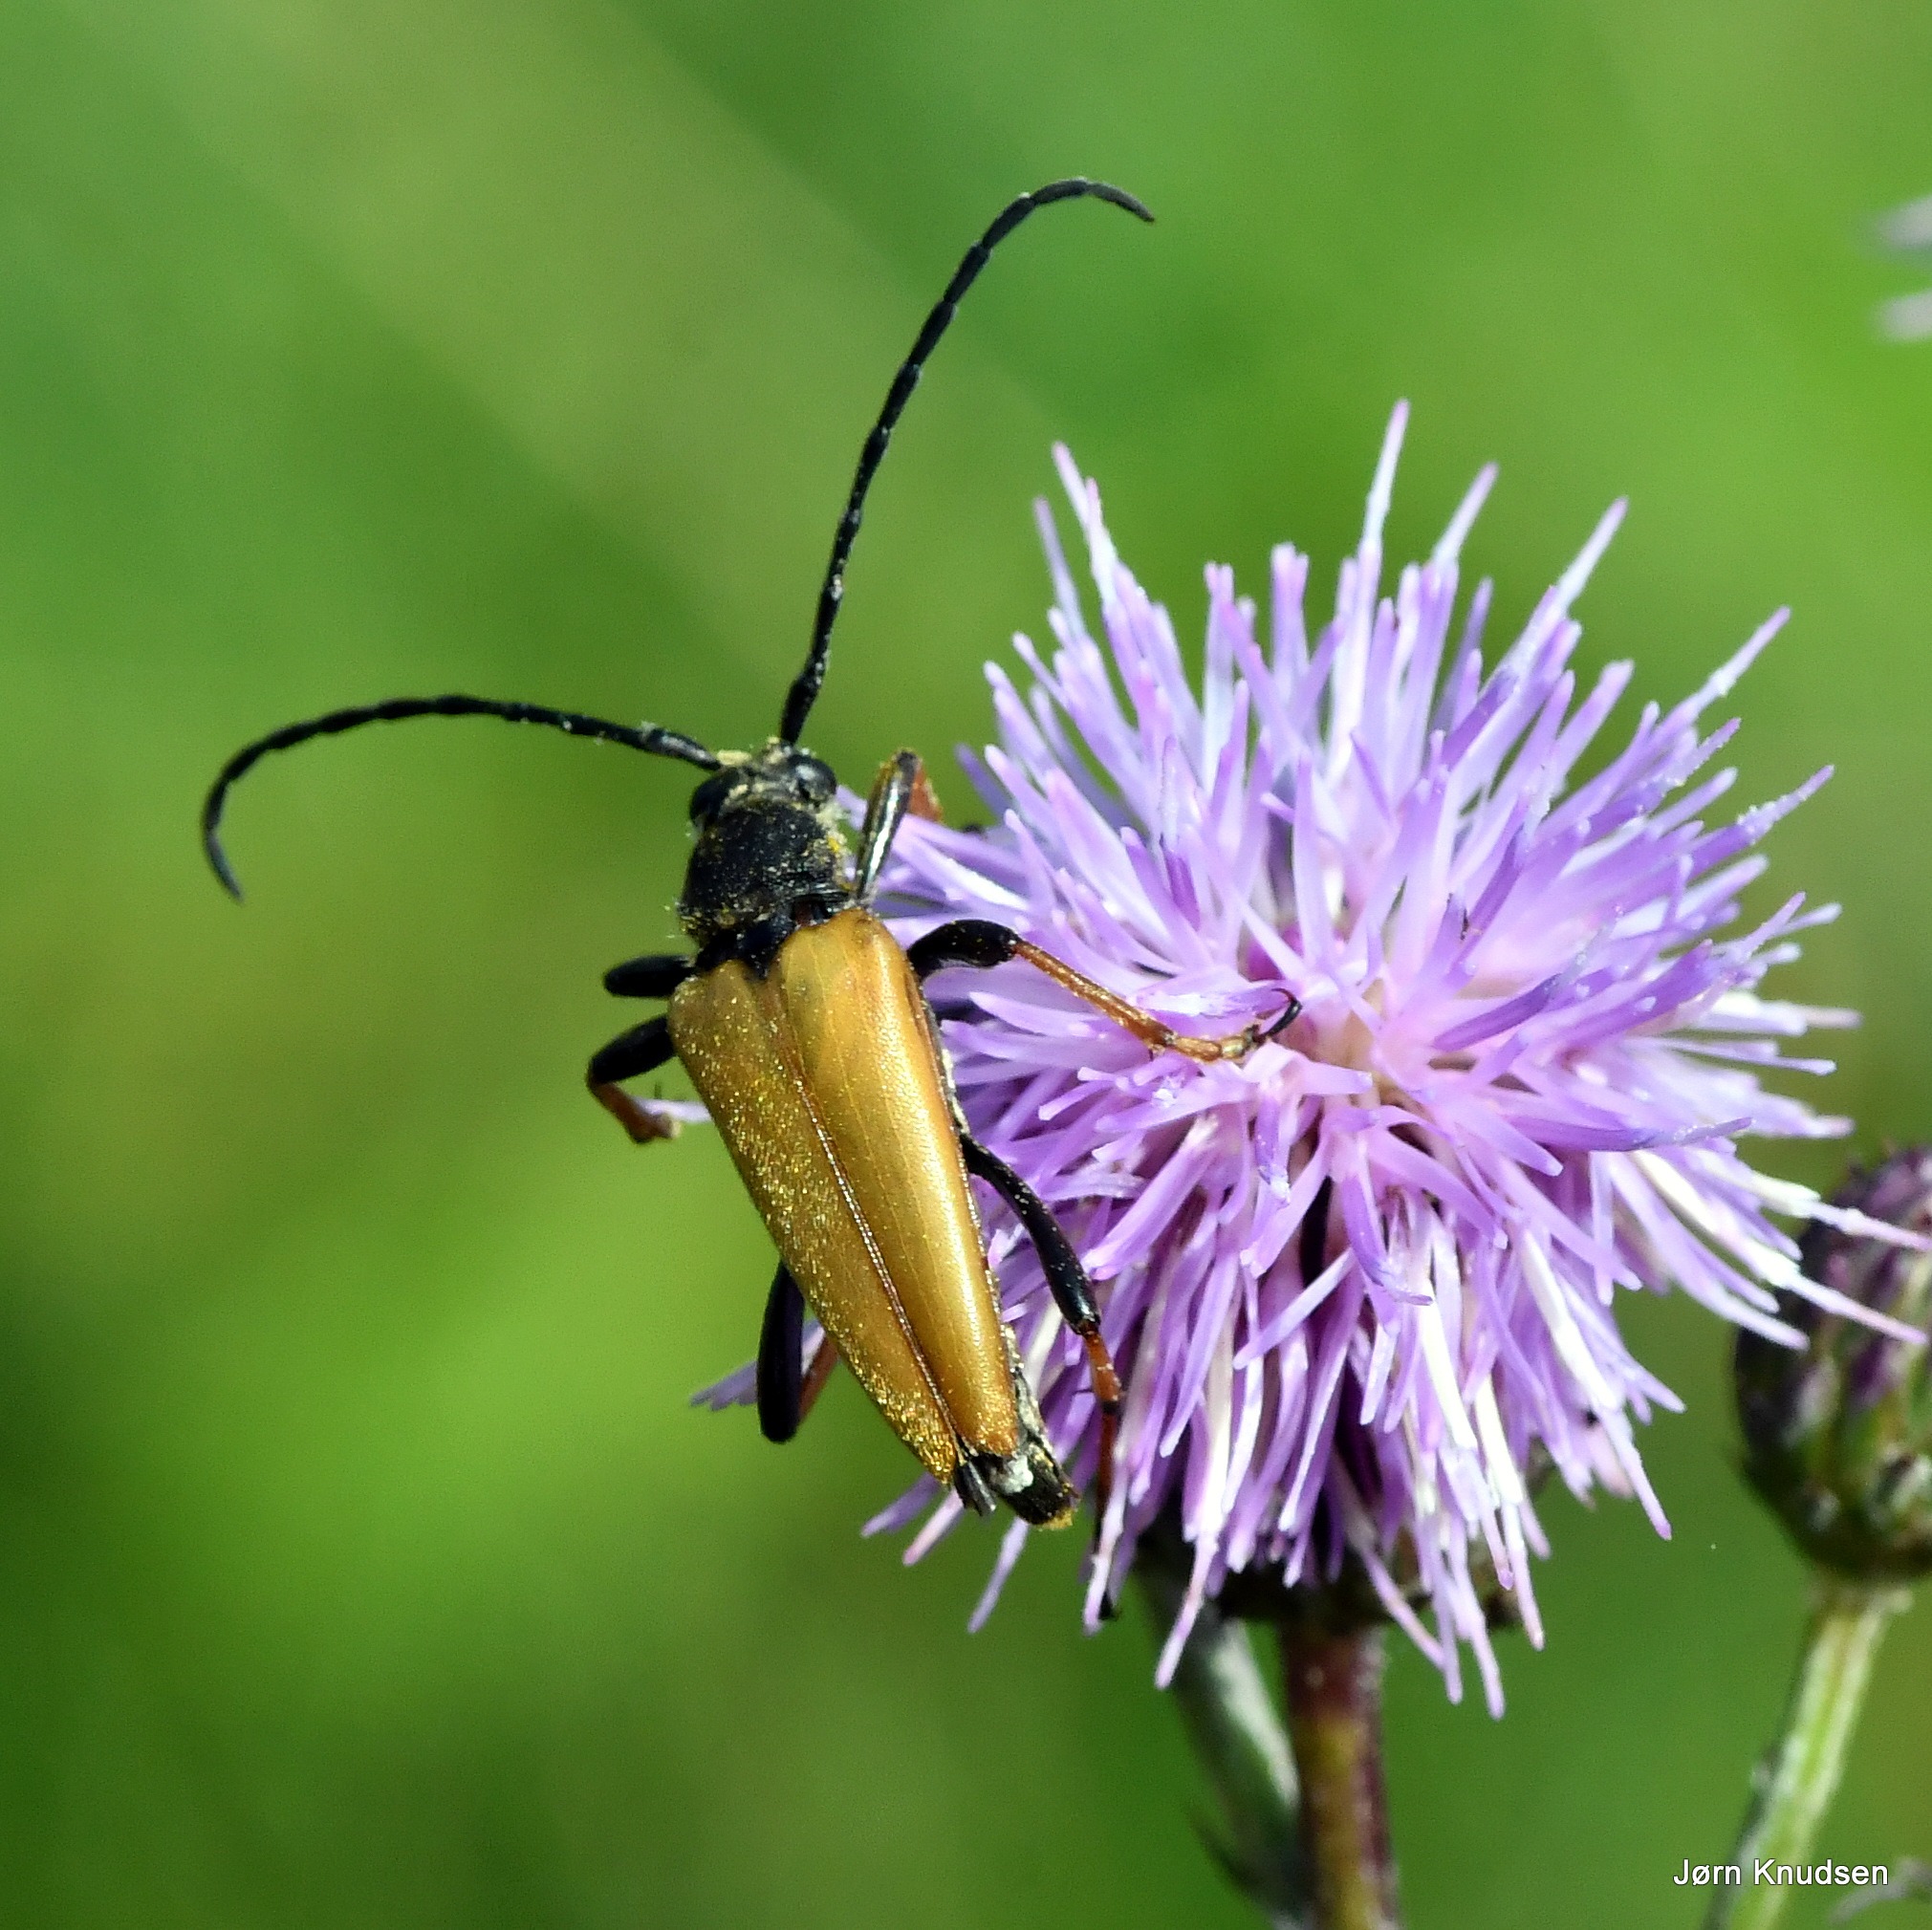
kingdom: Animalia
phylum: Arthropoda
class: Insecta
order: Coleoptera
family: Cerambycidae
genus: Stictoleptura
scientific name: Stictoleptura rubra
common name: Rød blomsterbuk
